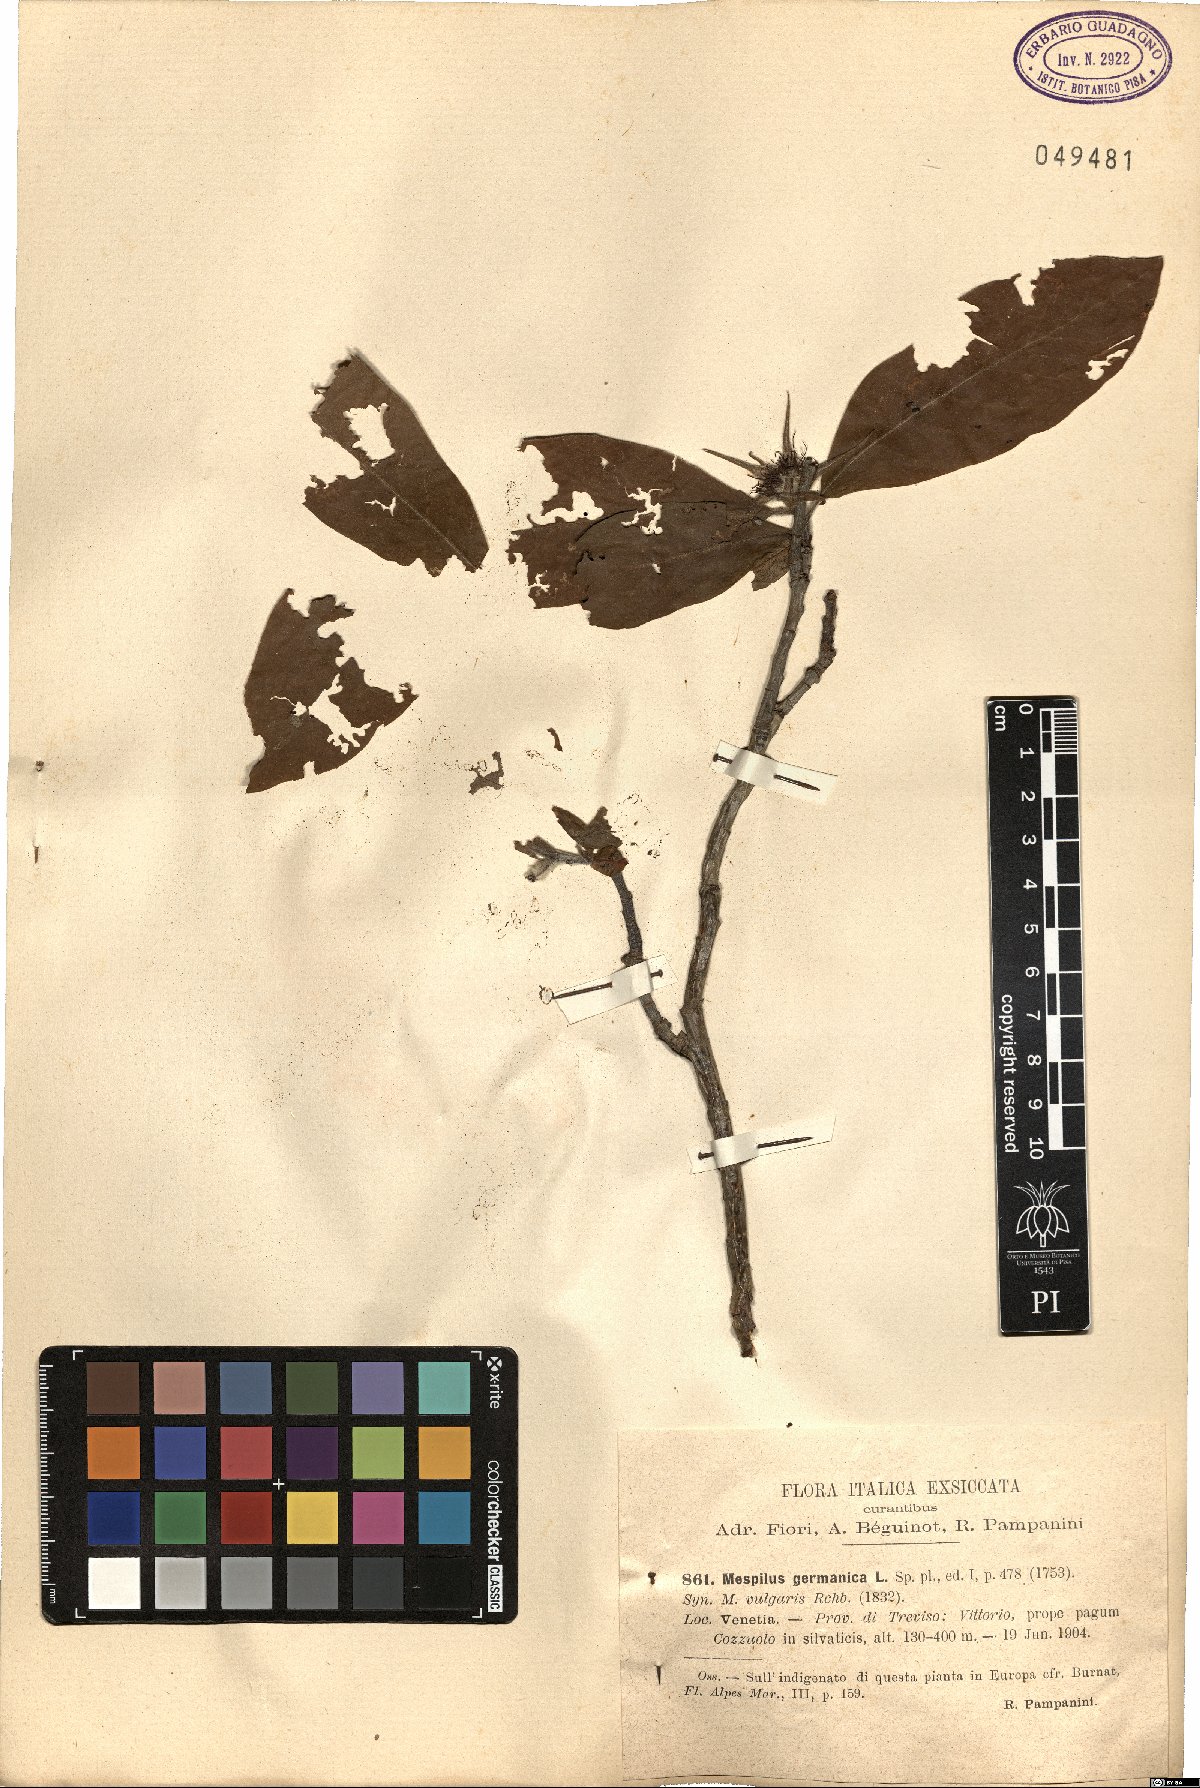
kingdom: Plantae
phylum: Tracheophyta
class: Magnoliopsida
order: Rosales
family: Rosaceae
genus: Mespilus
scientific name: Mespilus germanica
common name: Medlar
